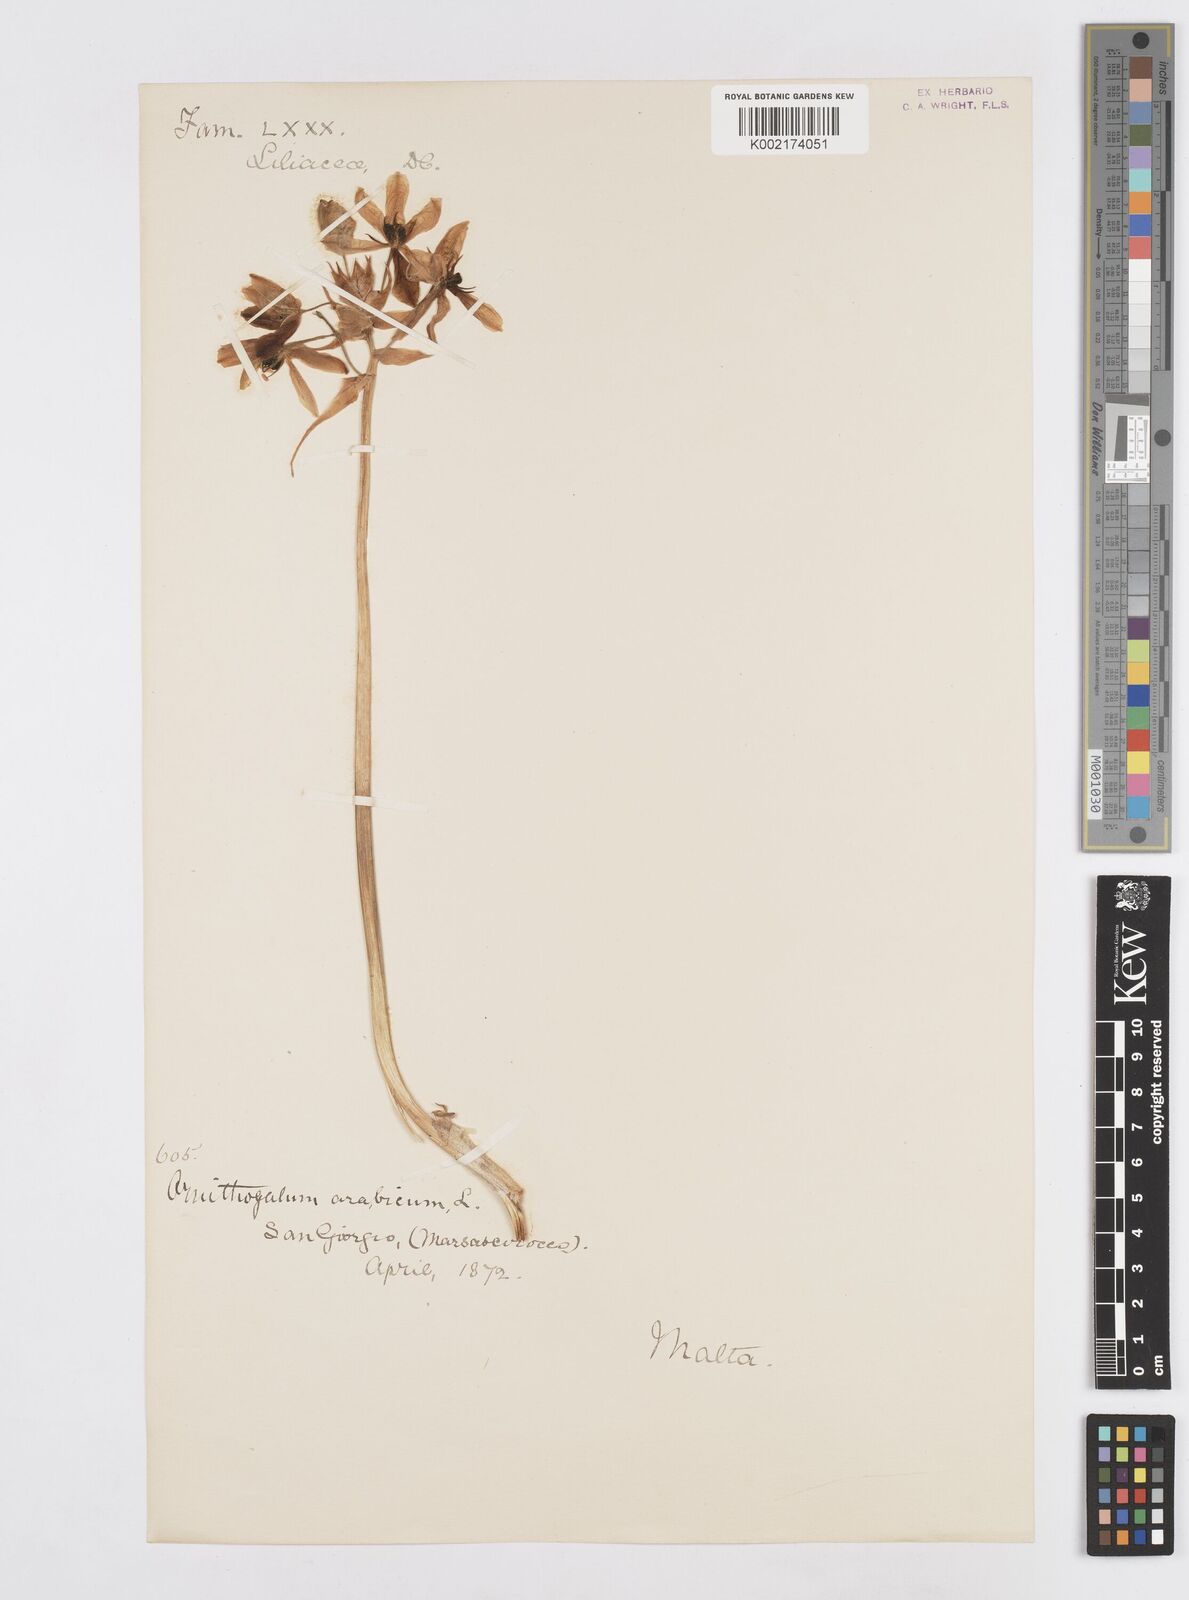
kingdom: Plantae
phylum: Tracheophyta
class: Liliopsida
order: Asparagales
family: Asparagaceae
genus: Ornithogalum
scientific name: Ornithogalum arabicum
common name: Arabian starflower
